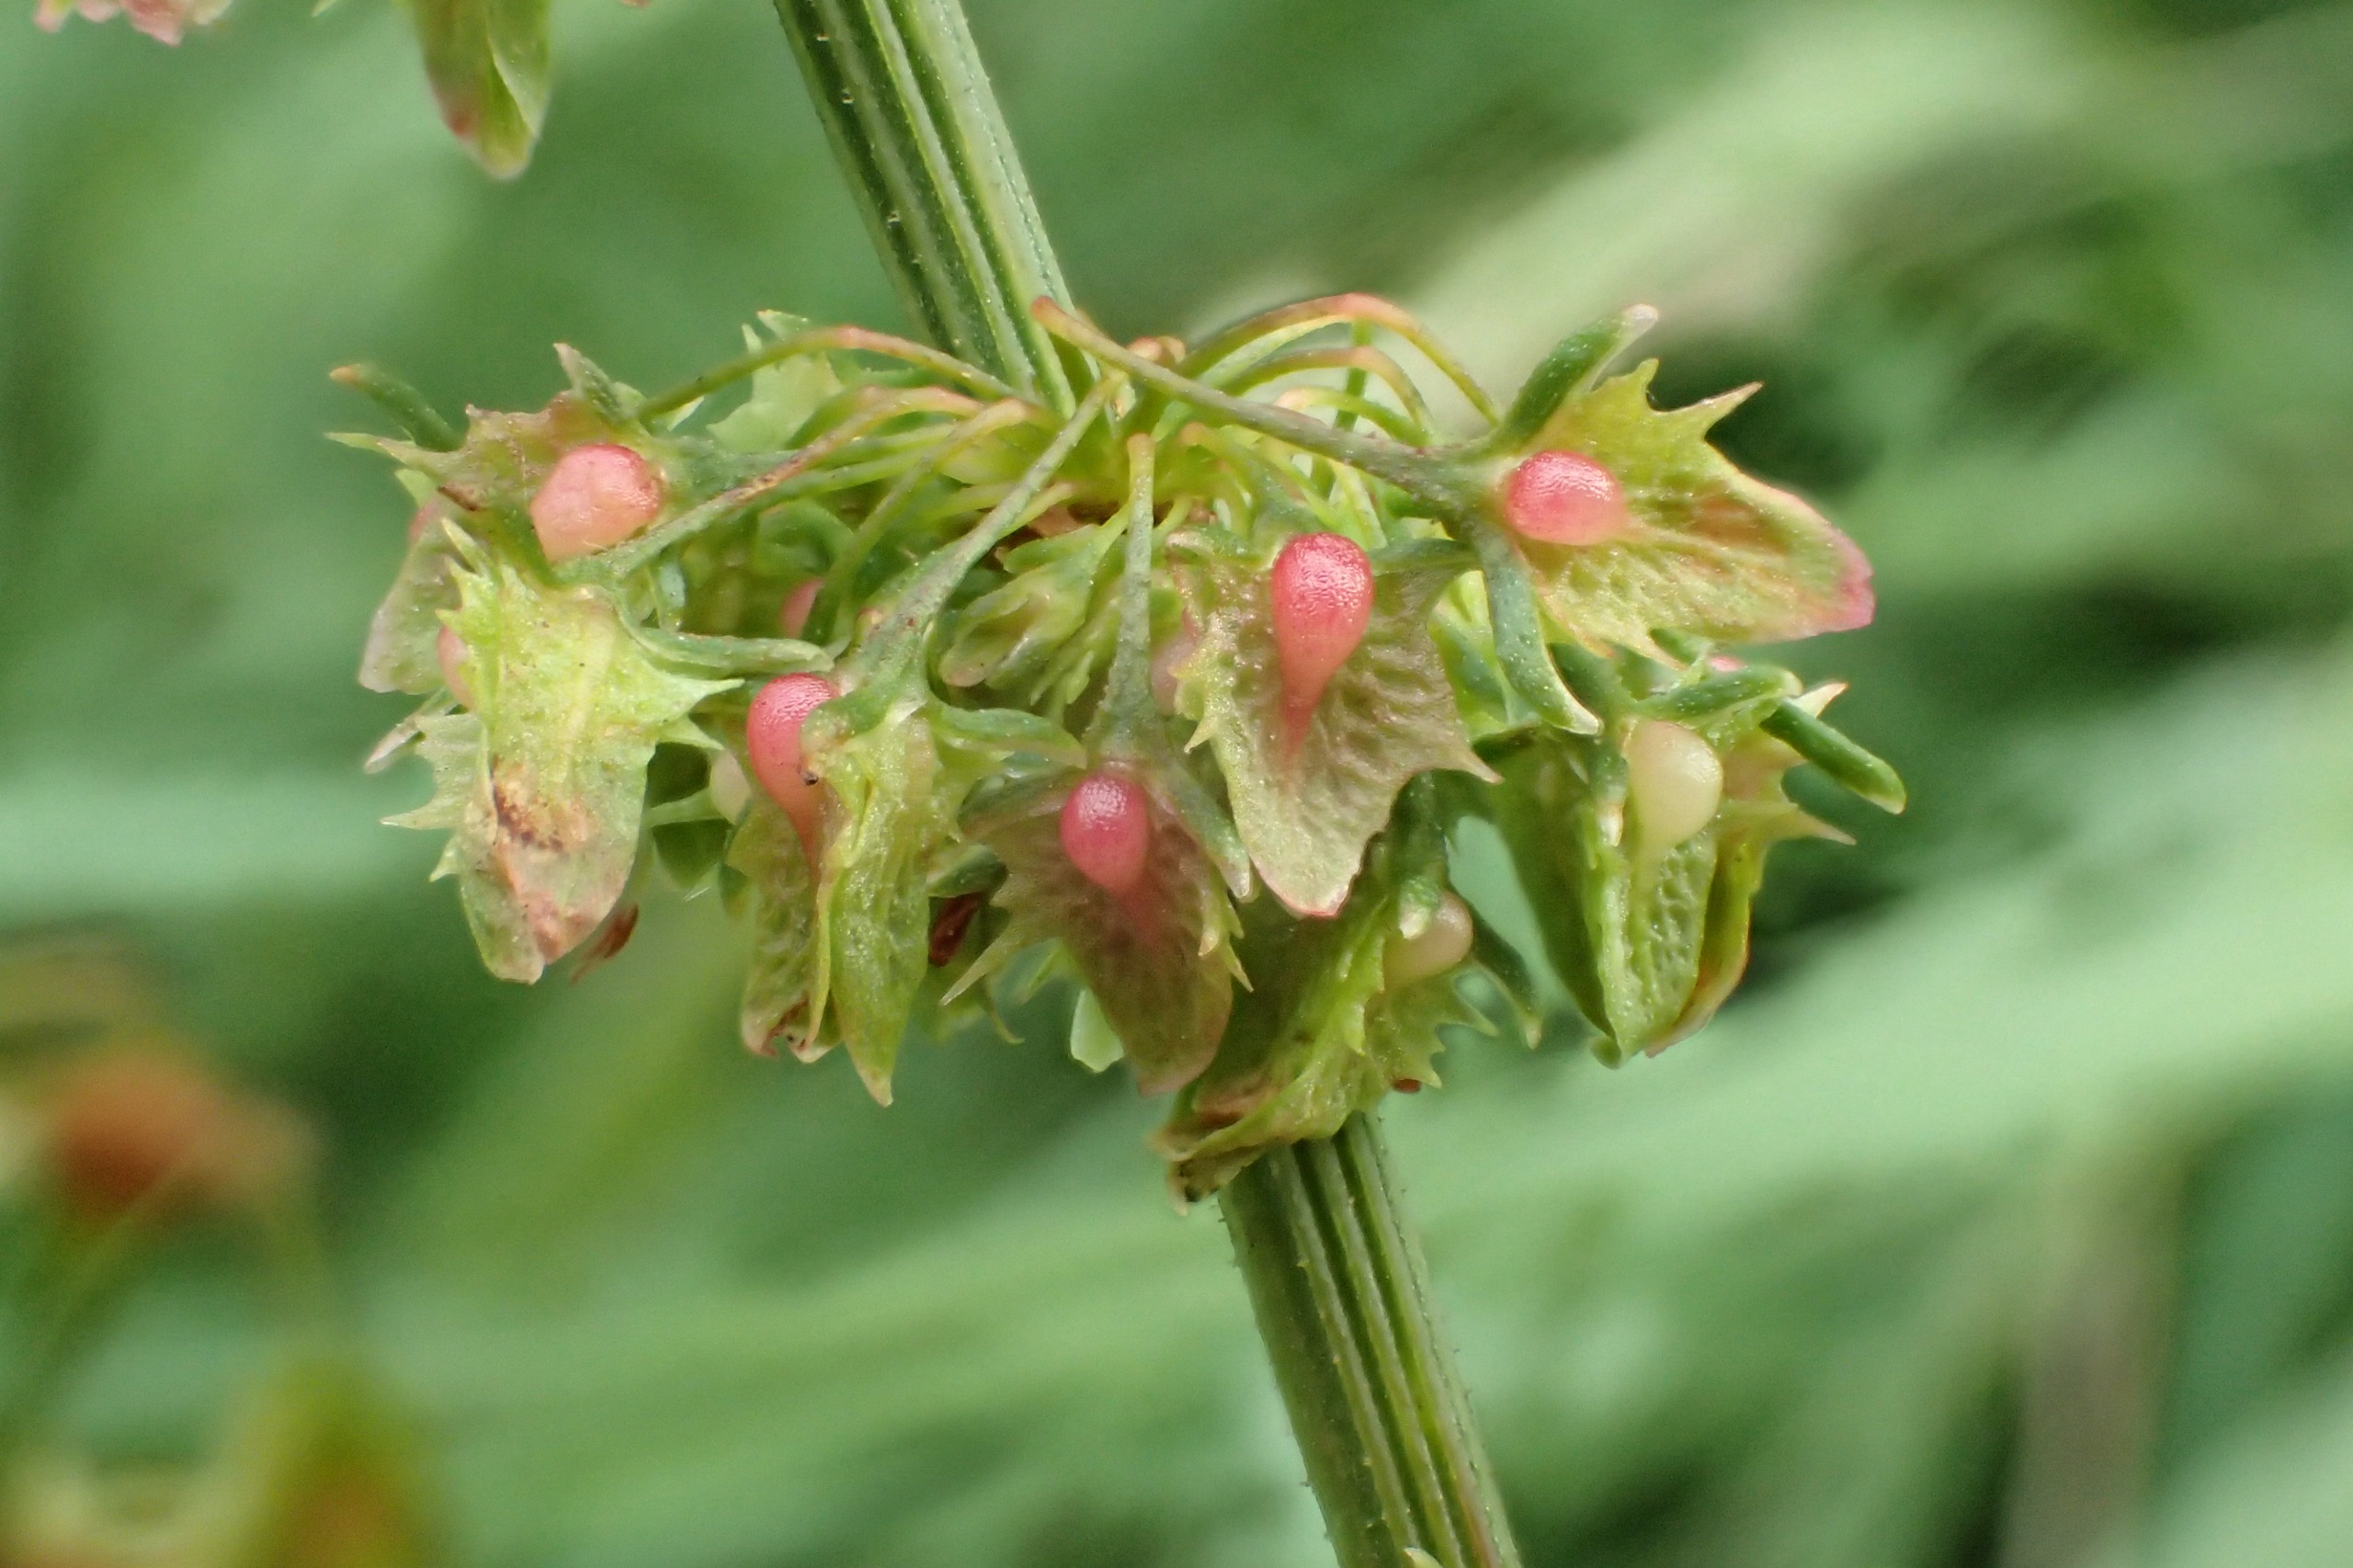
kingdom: Plantae
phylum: Tracheophyta
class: Magnoliopsida
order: Caryophyllales
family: Polygonaceae
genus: Rumex
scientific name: Rumex obtusifolius
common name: Butbladet skræppe
